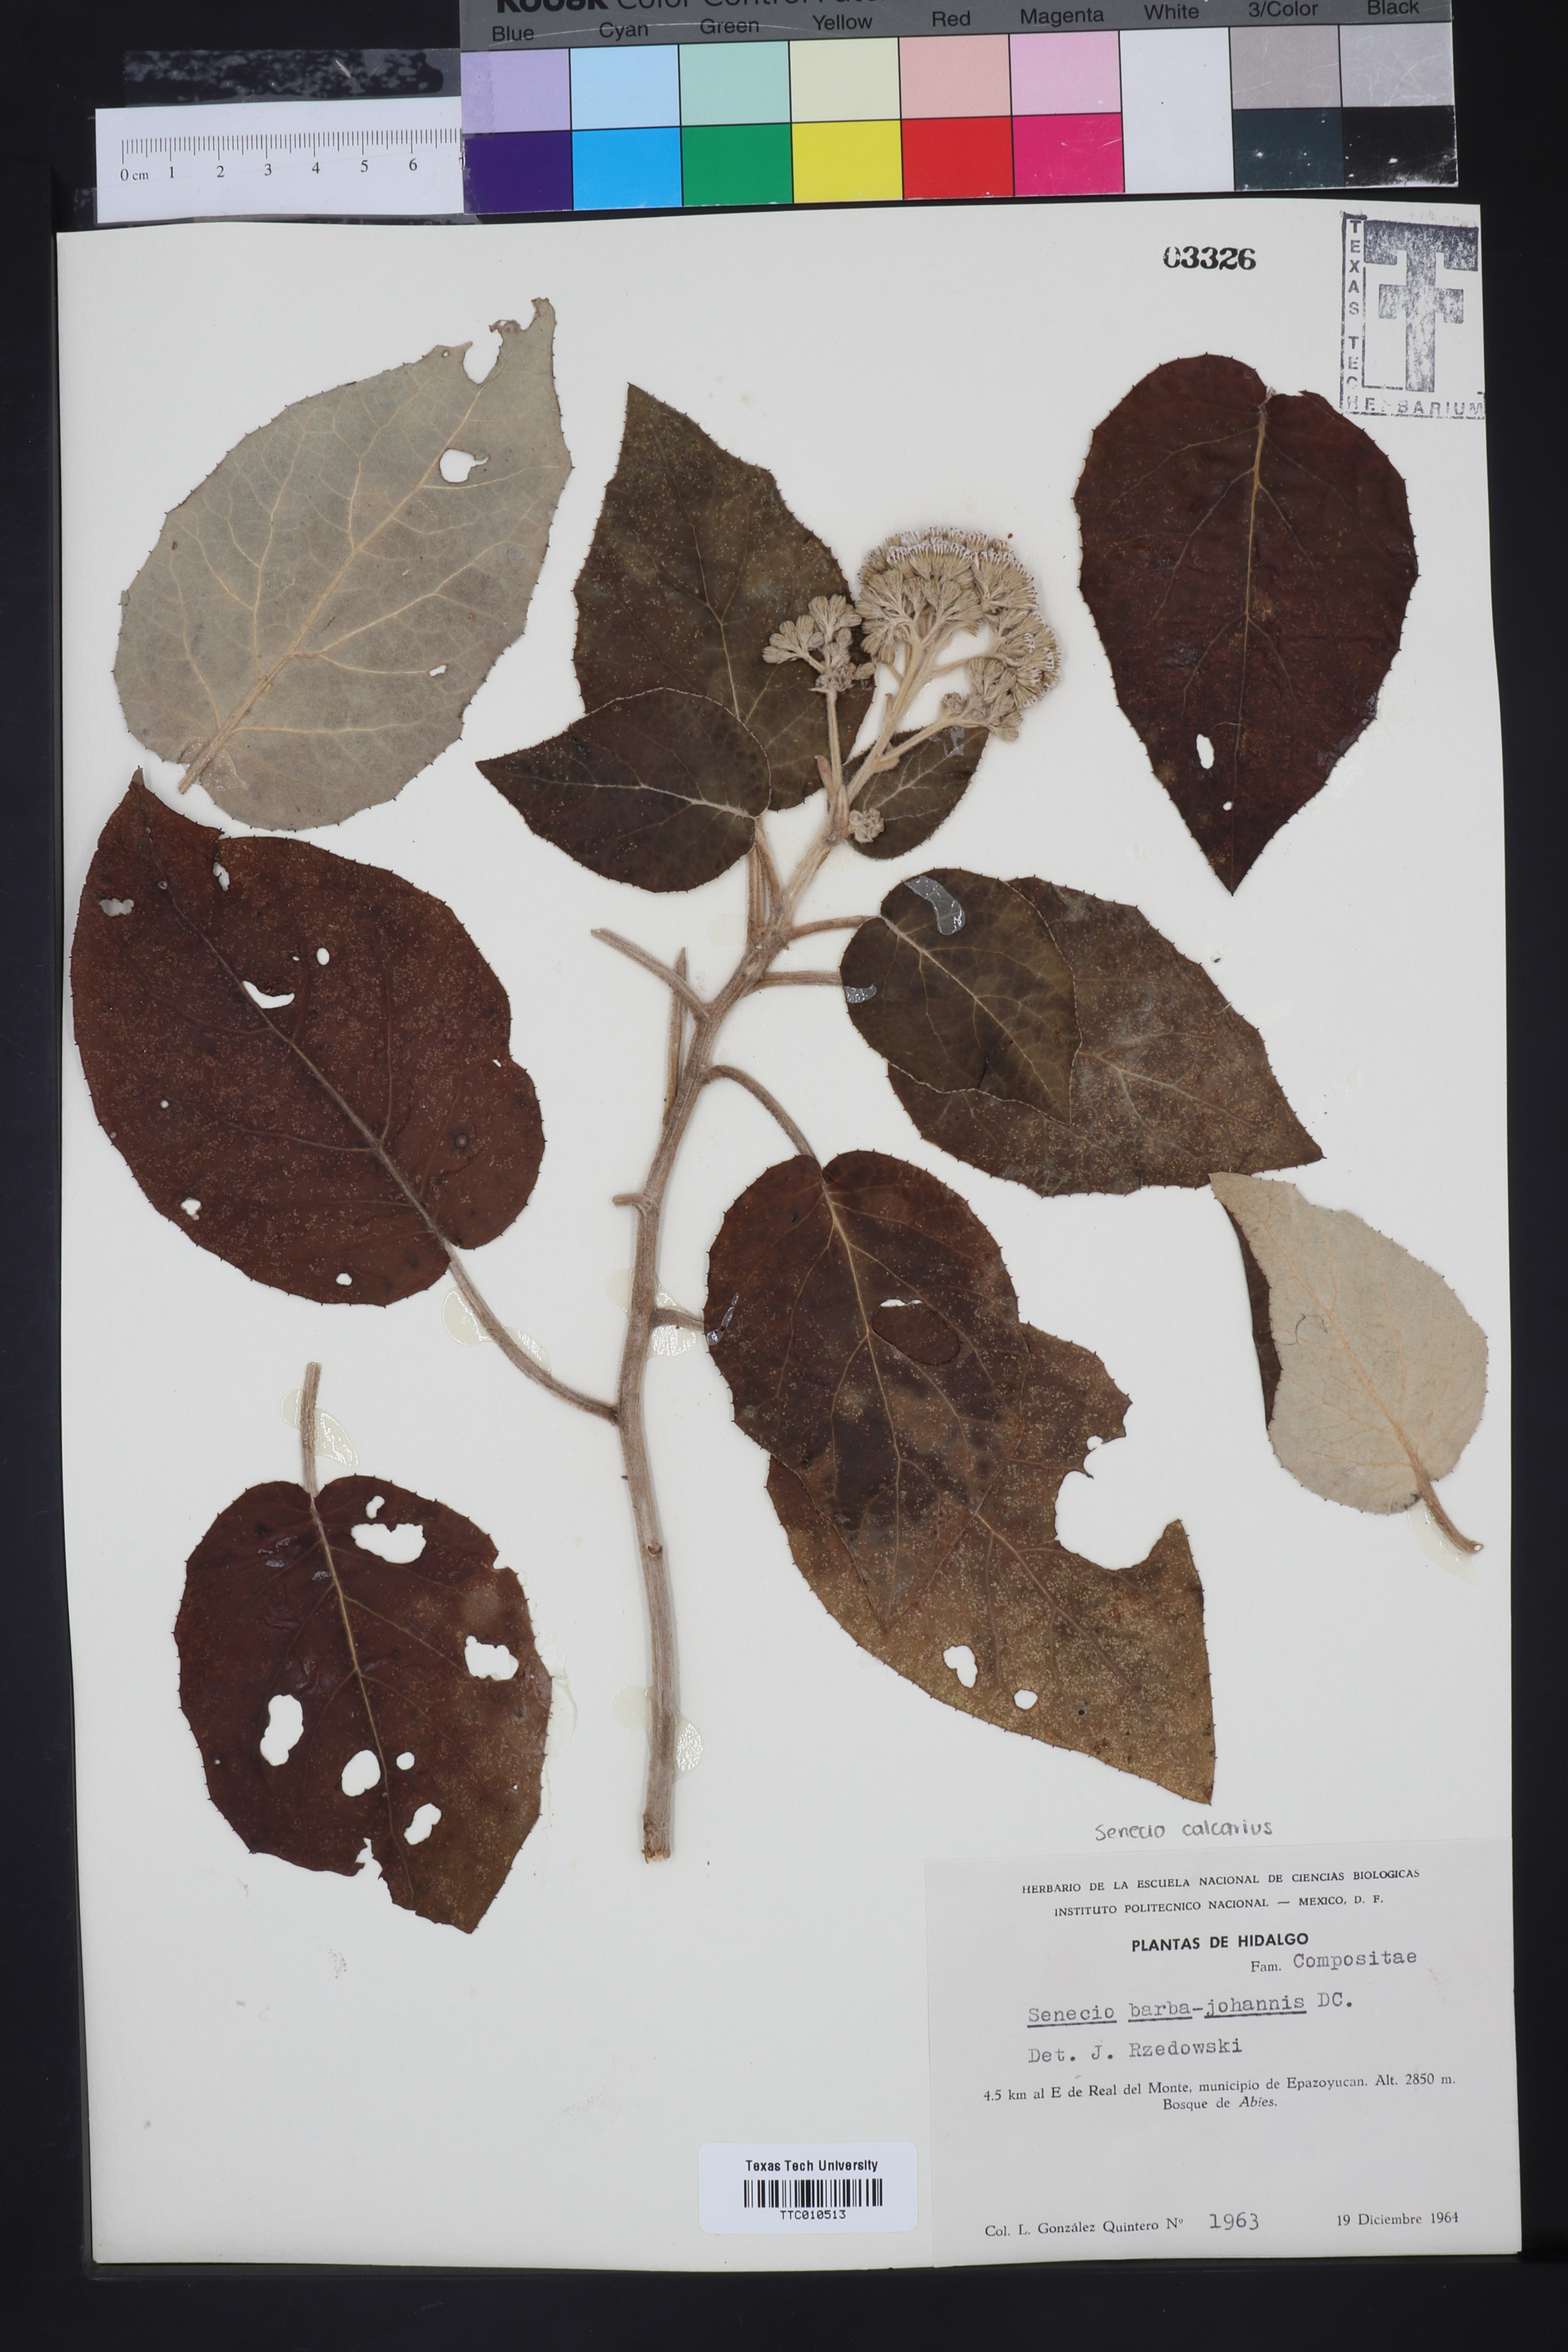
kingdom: Plantae
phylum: Tracheophyta
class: Magnoliopsida
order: Asterales
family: Asteraceae
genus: Roldana
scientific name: Roldana barba-johannis
